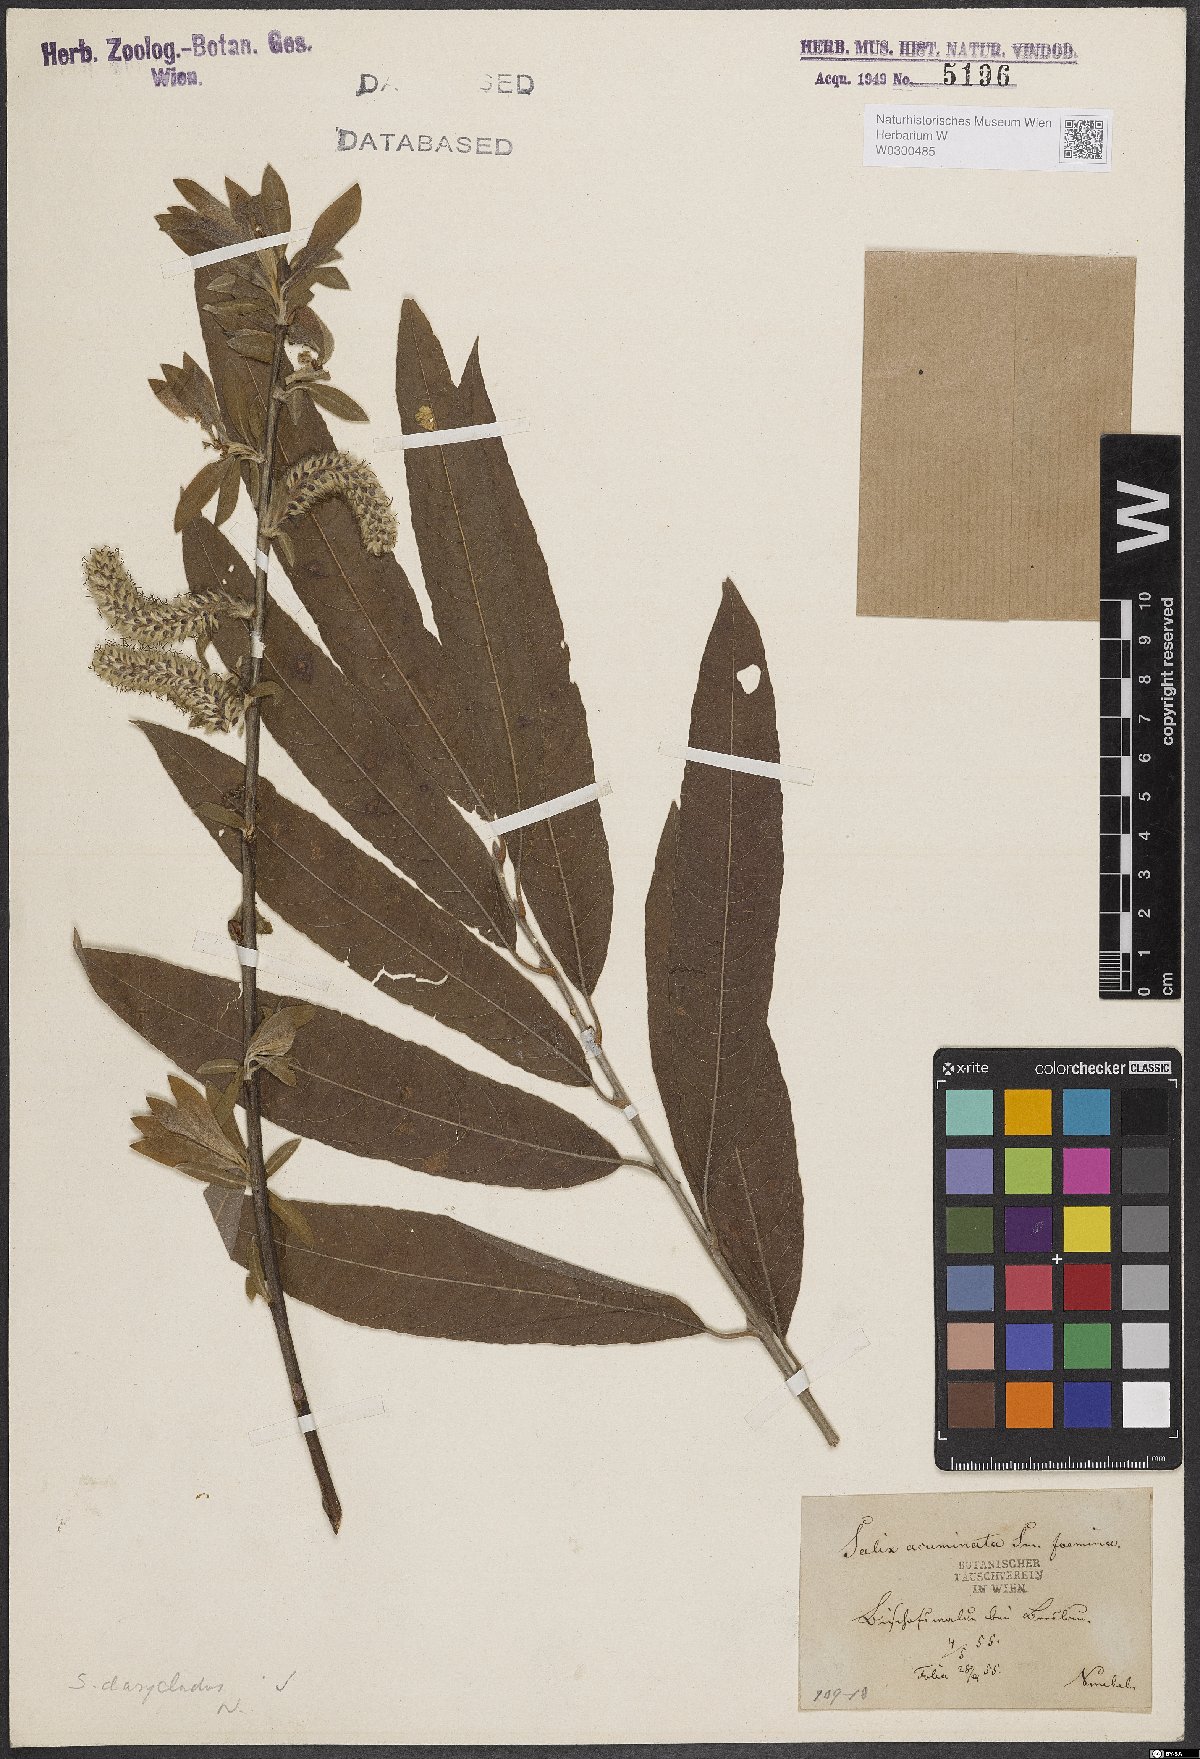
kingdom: Plantae
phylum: Tracheophyta
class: Magnoliopsida
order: Malpighiales
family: Salicaceae
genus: Salix
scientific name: Salix gmelinii
